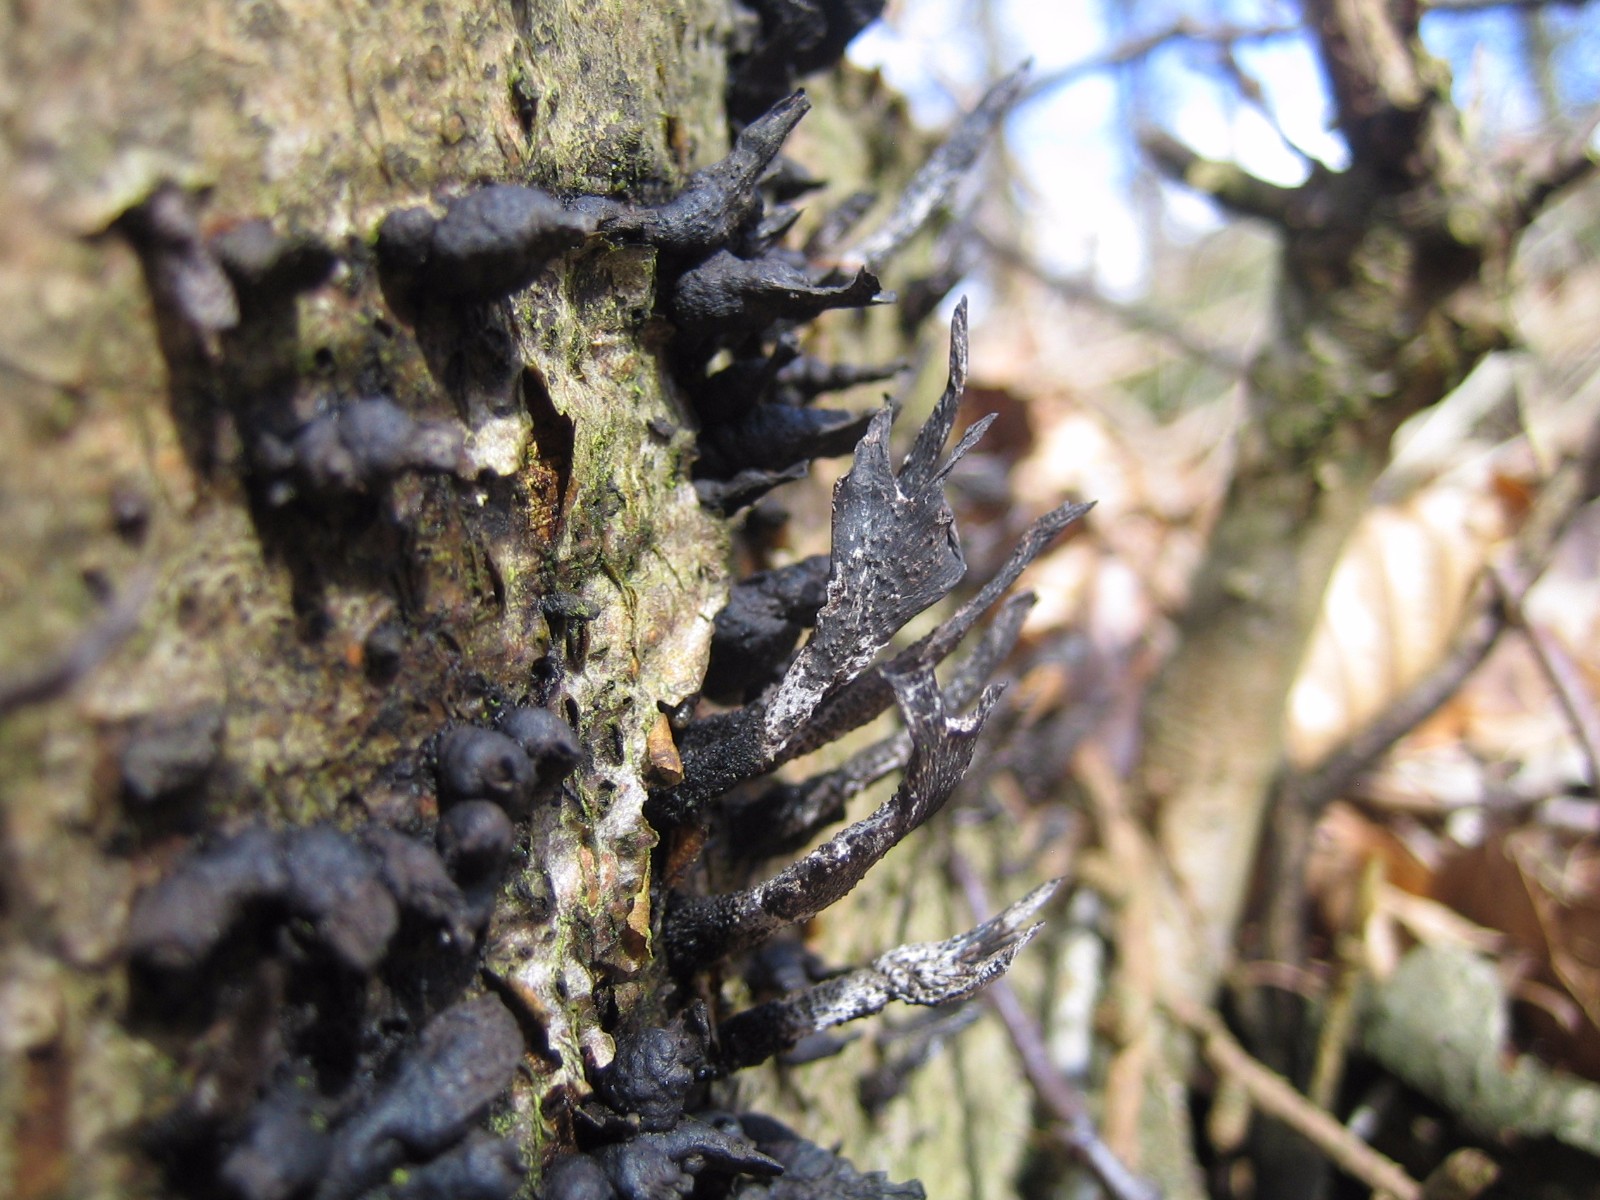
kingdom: Fungi
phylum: Ascomycota
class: Sordariomycetes
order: Xylariales
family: Xylariaceae
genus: Xylaria
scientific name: Xylaria hypoxylon
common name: grenet stødsvamp
